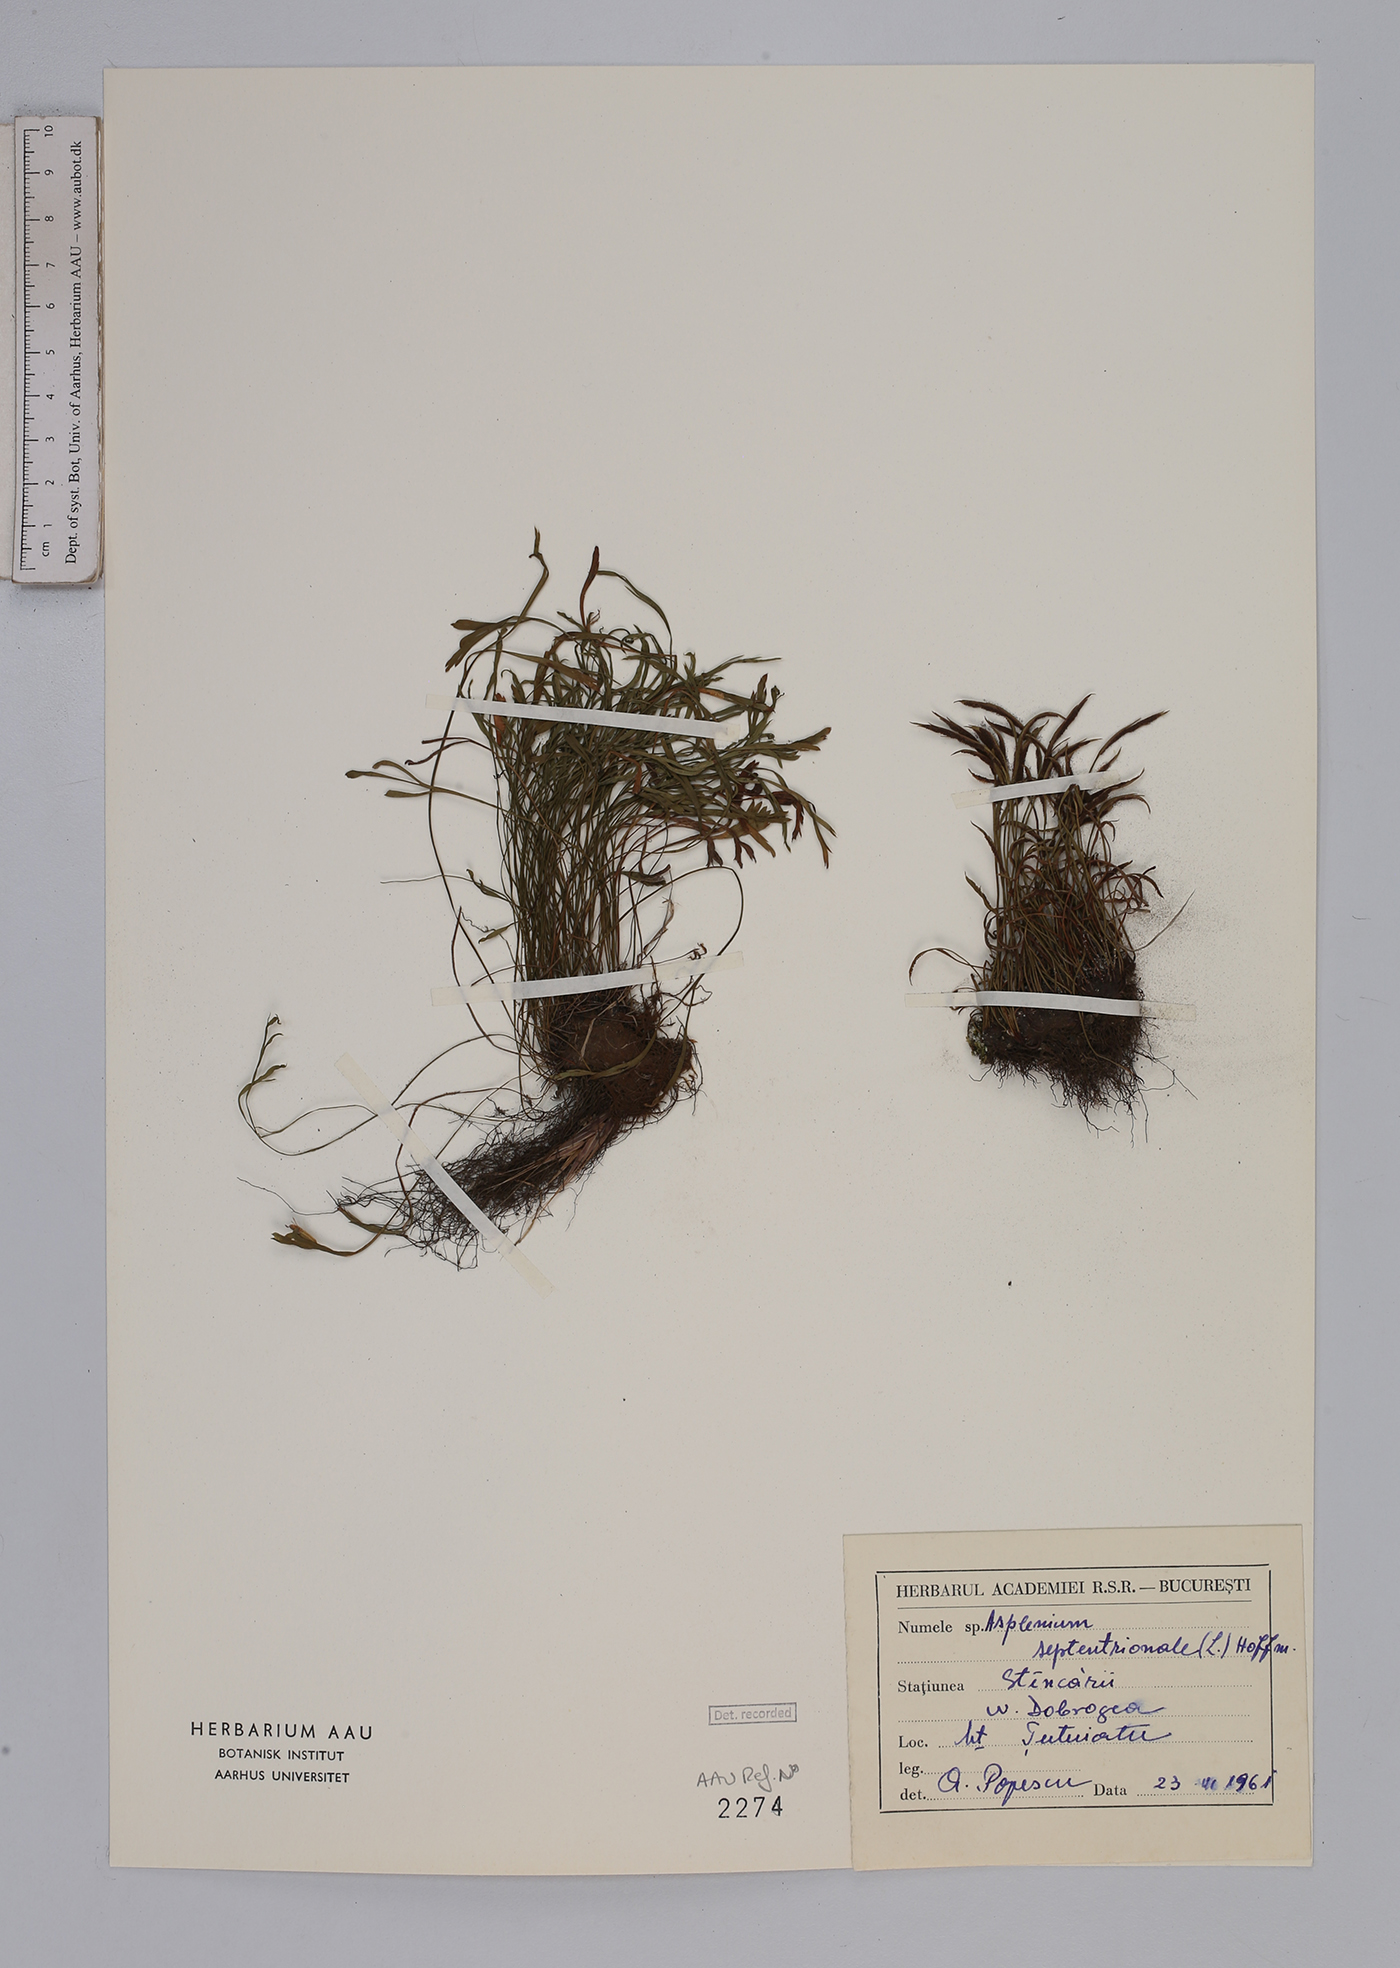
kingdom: Plantae
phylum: Tracheophyta
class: Polypodiopsida
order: Polypodiales
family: Aspleniaceae
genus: Asplenium
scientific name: Asplenium septentrionale
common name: Forked spleenwort
